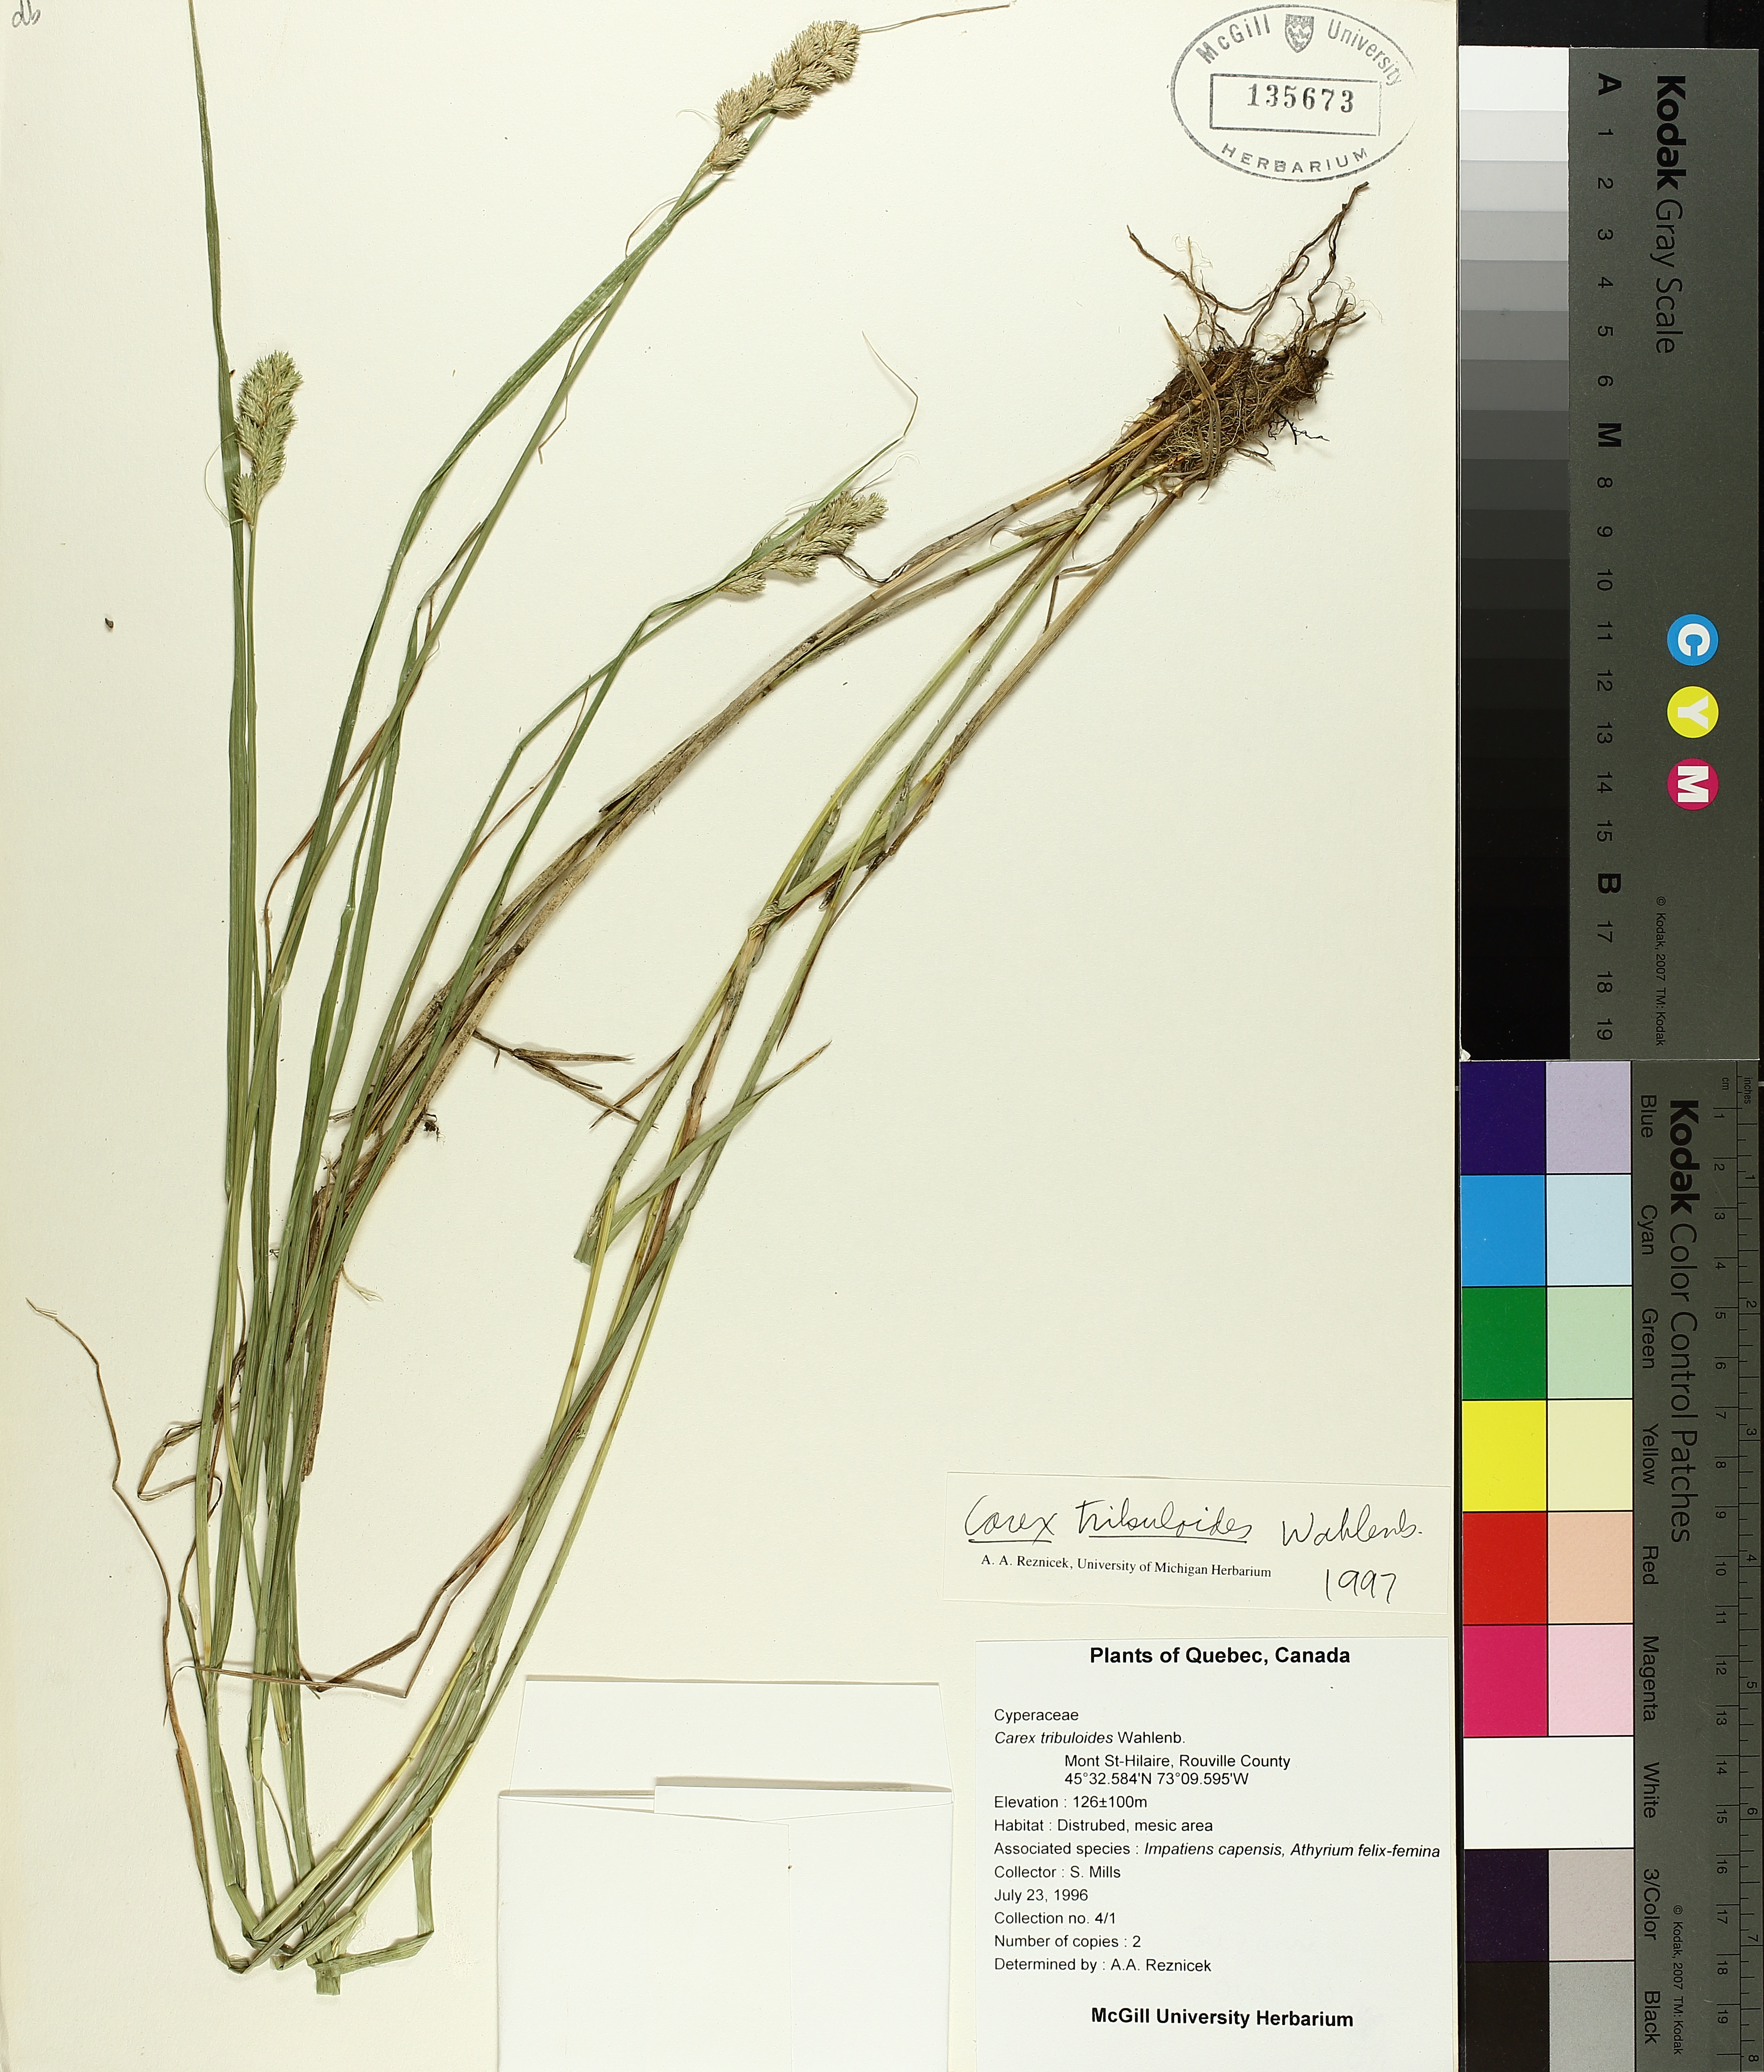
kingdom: Plantae
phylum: Tracheophyta
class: Liliopsida
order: Poales
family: Cyperaceae
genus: Carex
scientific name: Carex tribuloides
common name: Blunt broom sedge
